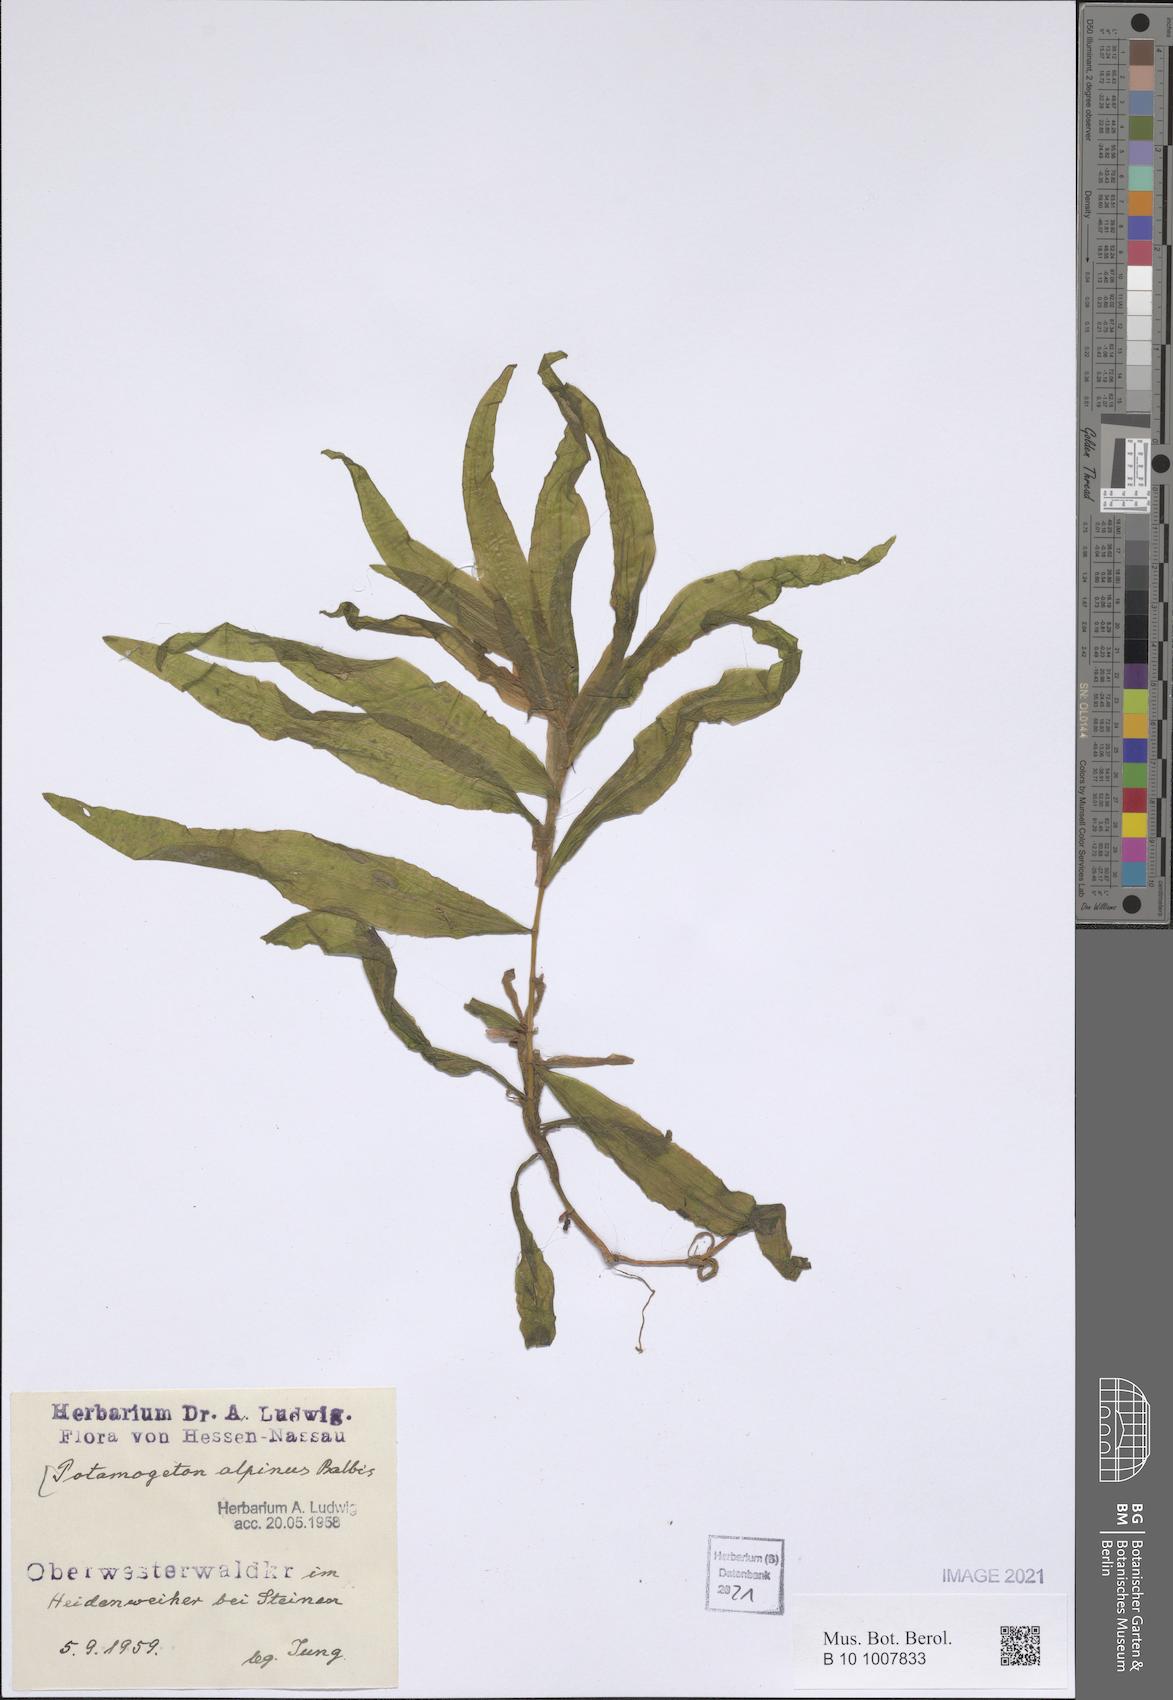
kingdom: Plantae
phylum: Tracheophyta
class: Liliopsida
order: Alismatales
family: Potamogetonaceae
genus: Potamogeton
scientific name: Potamogeton alpinus
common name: Red pondweed
